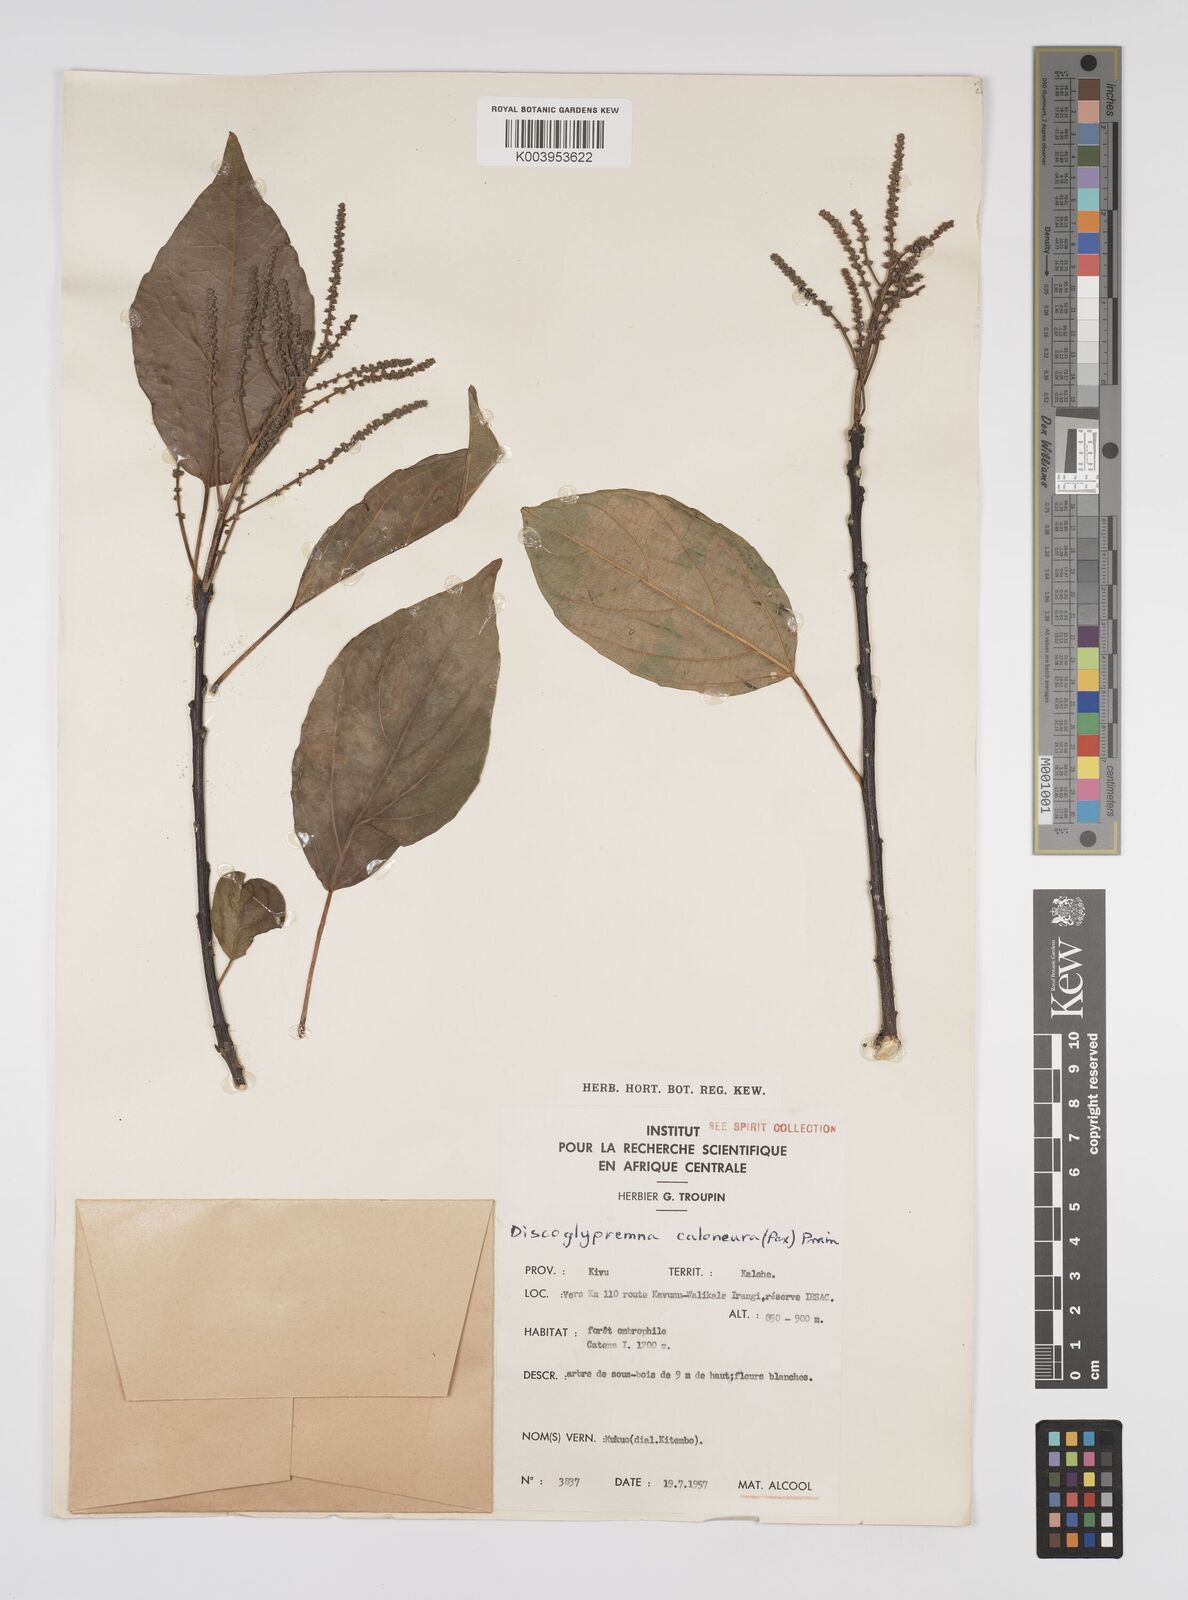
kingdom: Plantae
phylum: Tracheophyta
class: Magnoliopsida
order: Malpighiales
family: Euphorbiaceae
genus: Discoglypremna
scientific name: Discoglypremna caloneura
